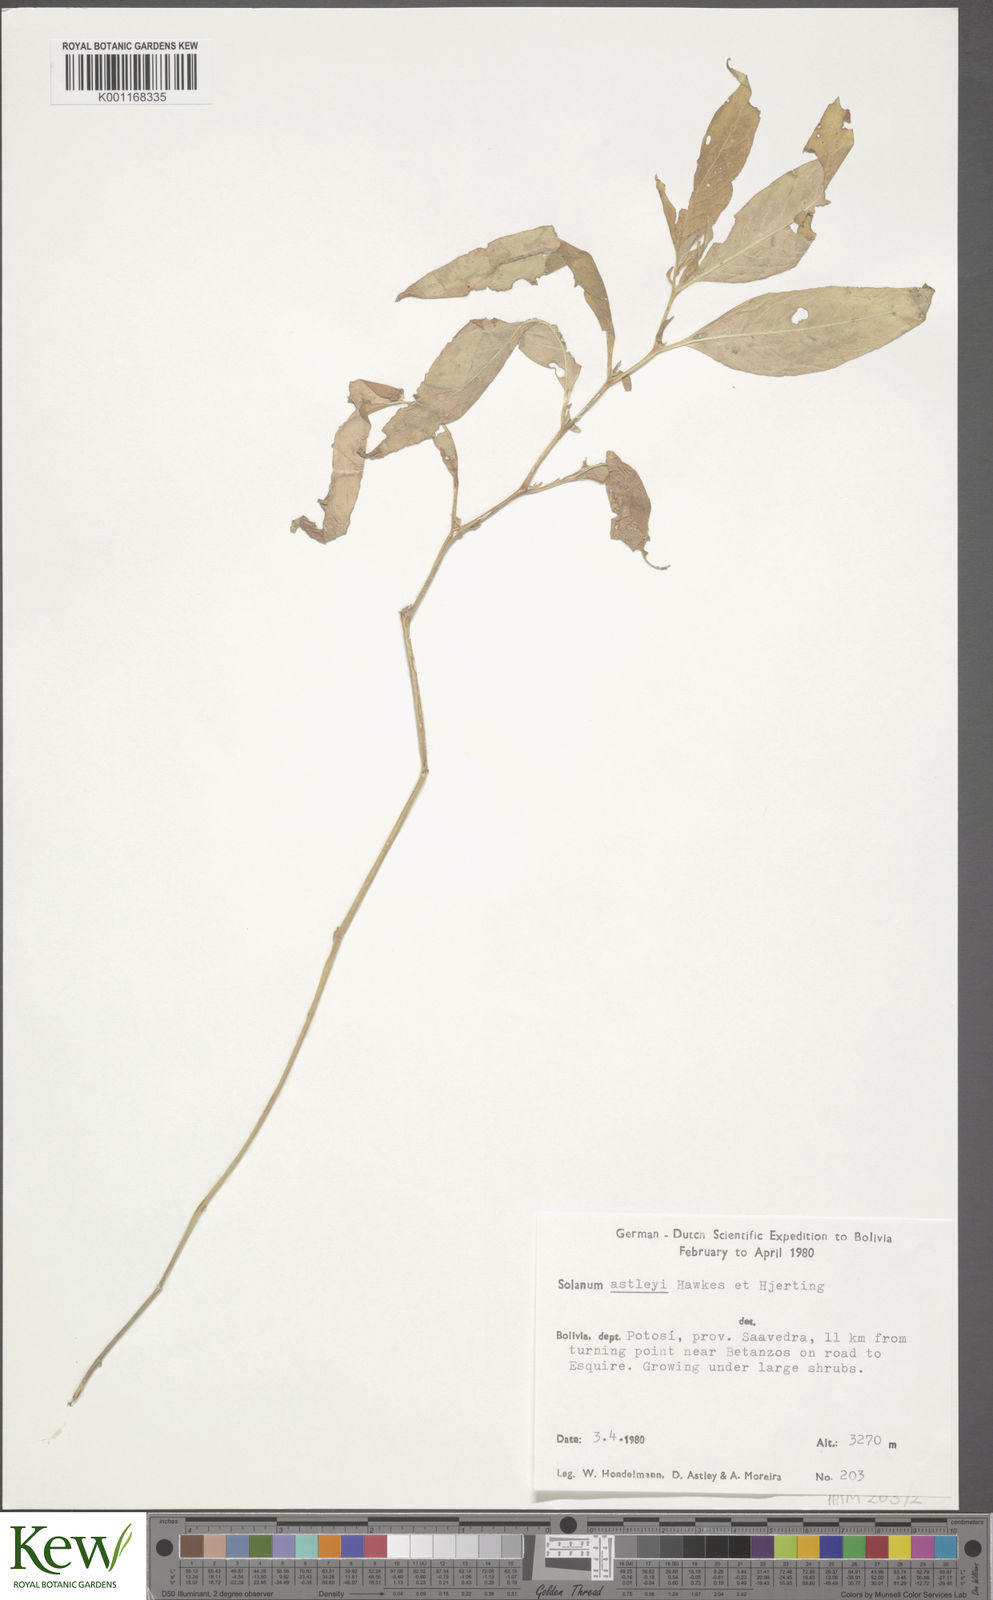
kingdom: Plantae
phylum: Tracheophyta
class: Magnoliopsida
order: Solanales
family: Solanaceae
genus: Solanum
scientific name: Solanum boliviense
